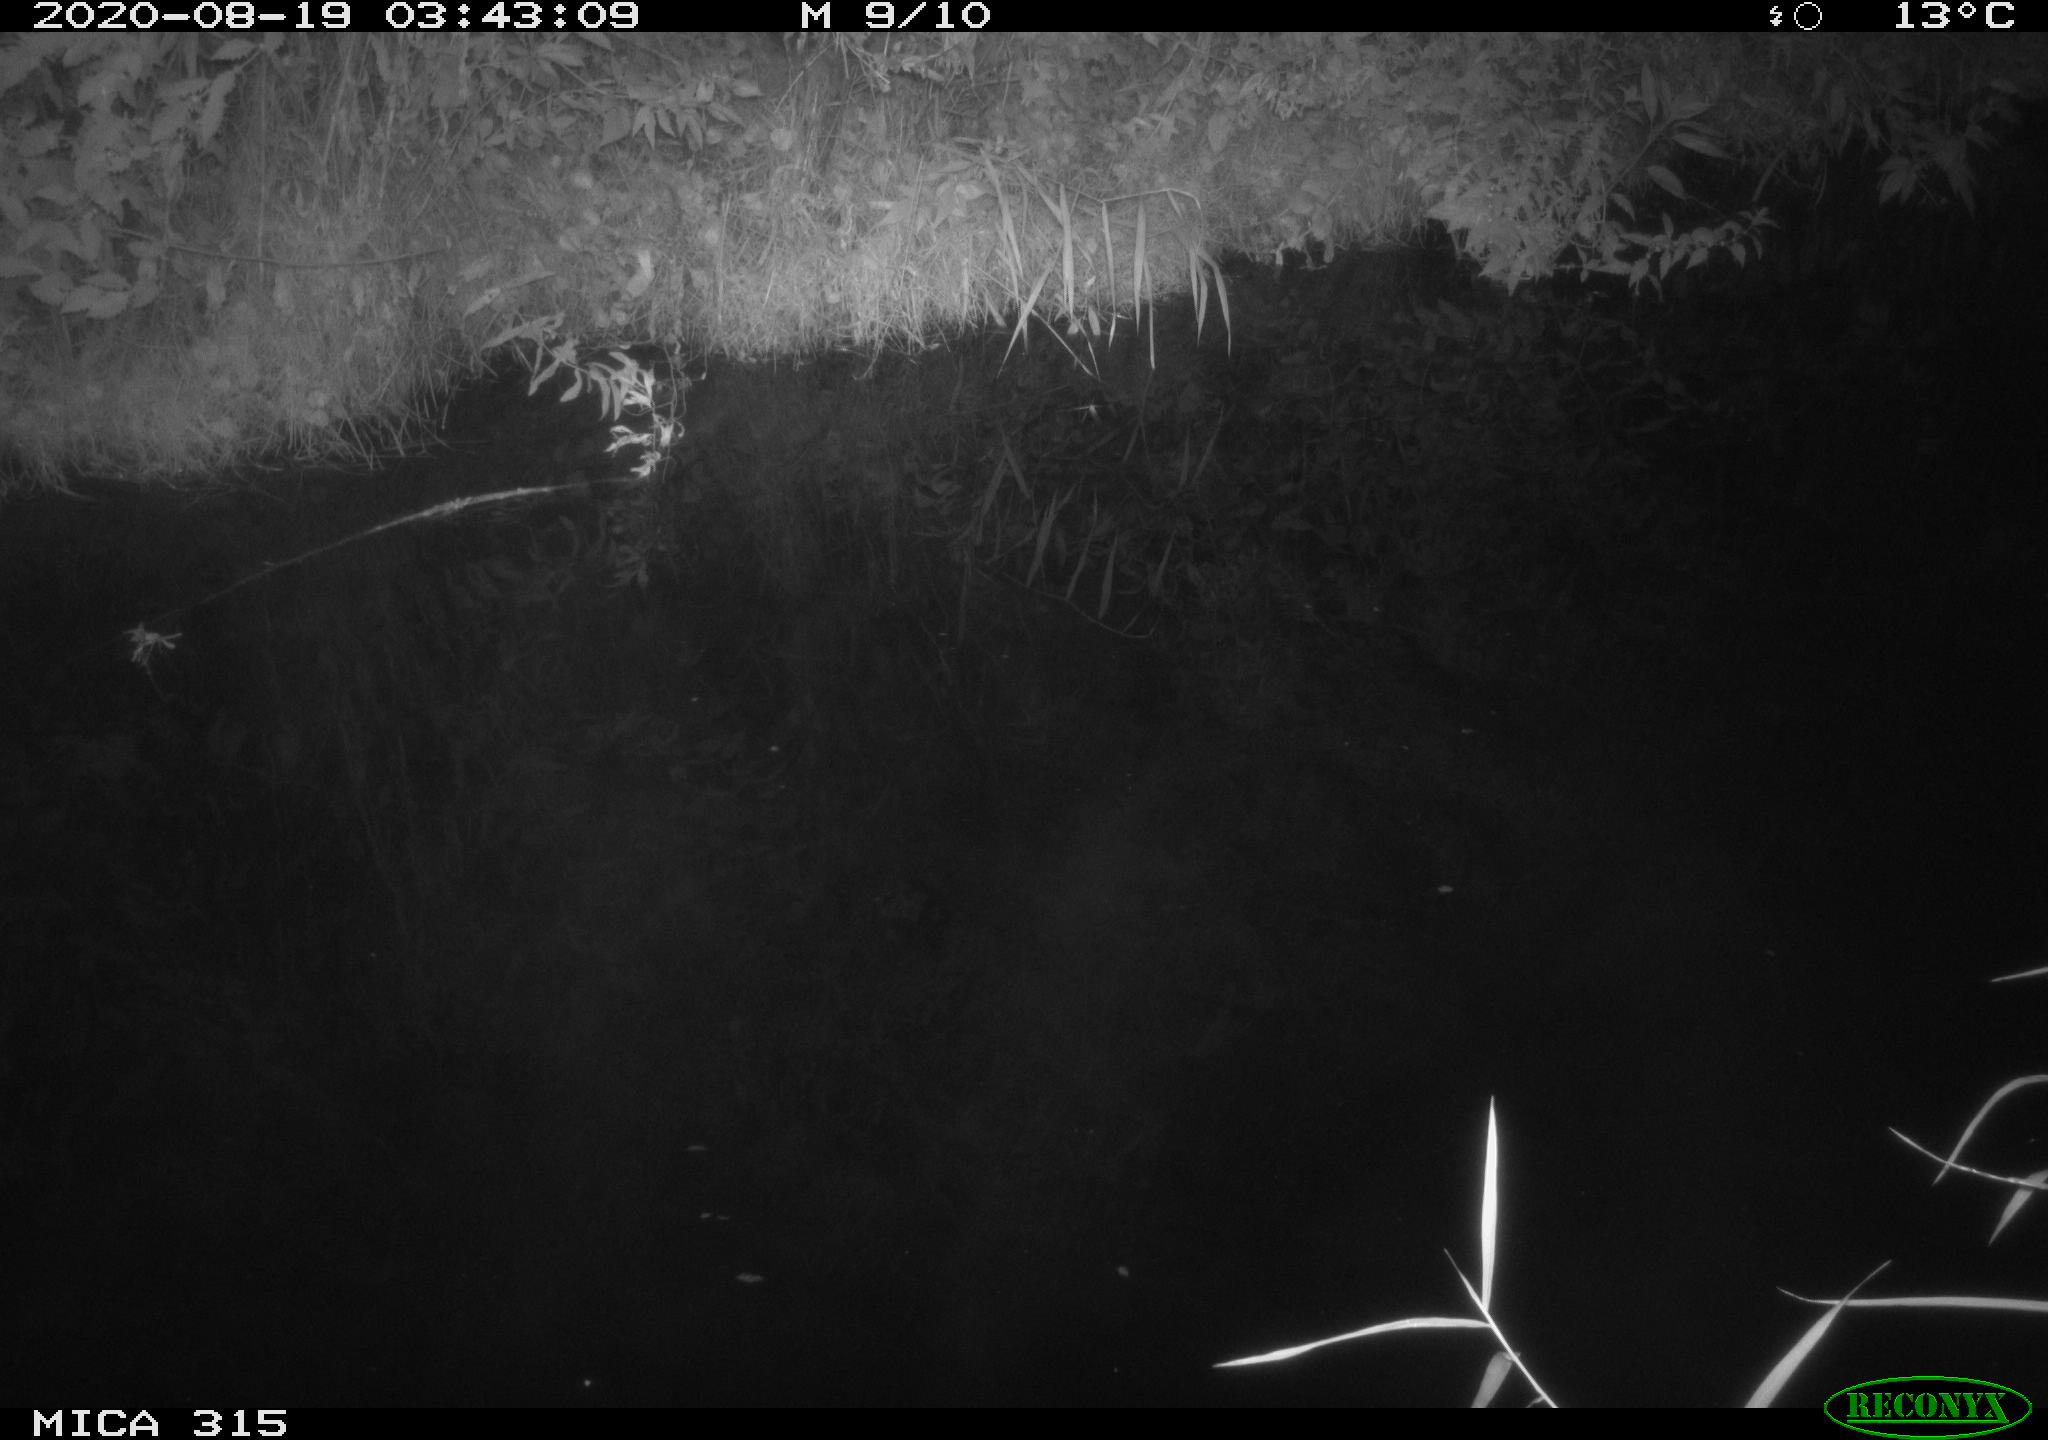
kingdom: Animalia
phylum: Chordata
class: Aves
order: Anseriformes
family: Anatidae
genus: Anas
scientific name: Anas platyrhynchos
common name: Mallard
